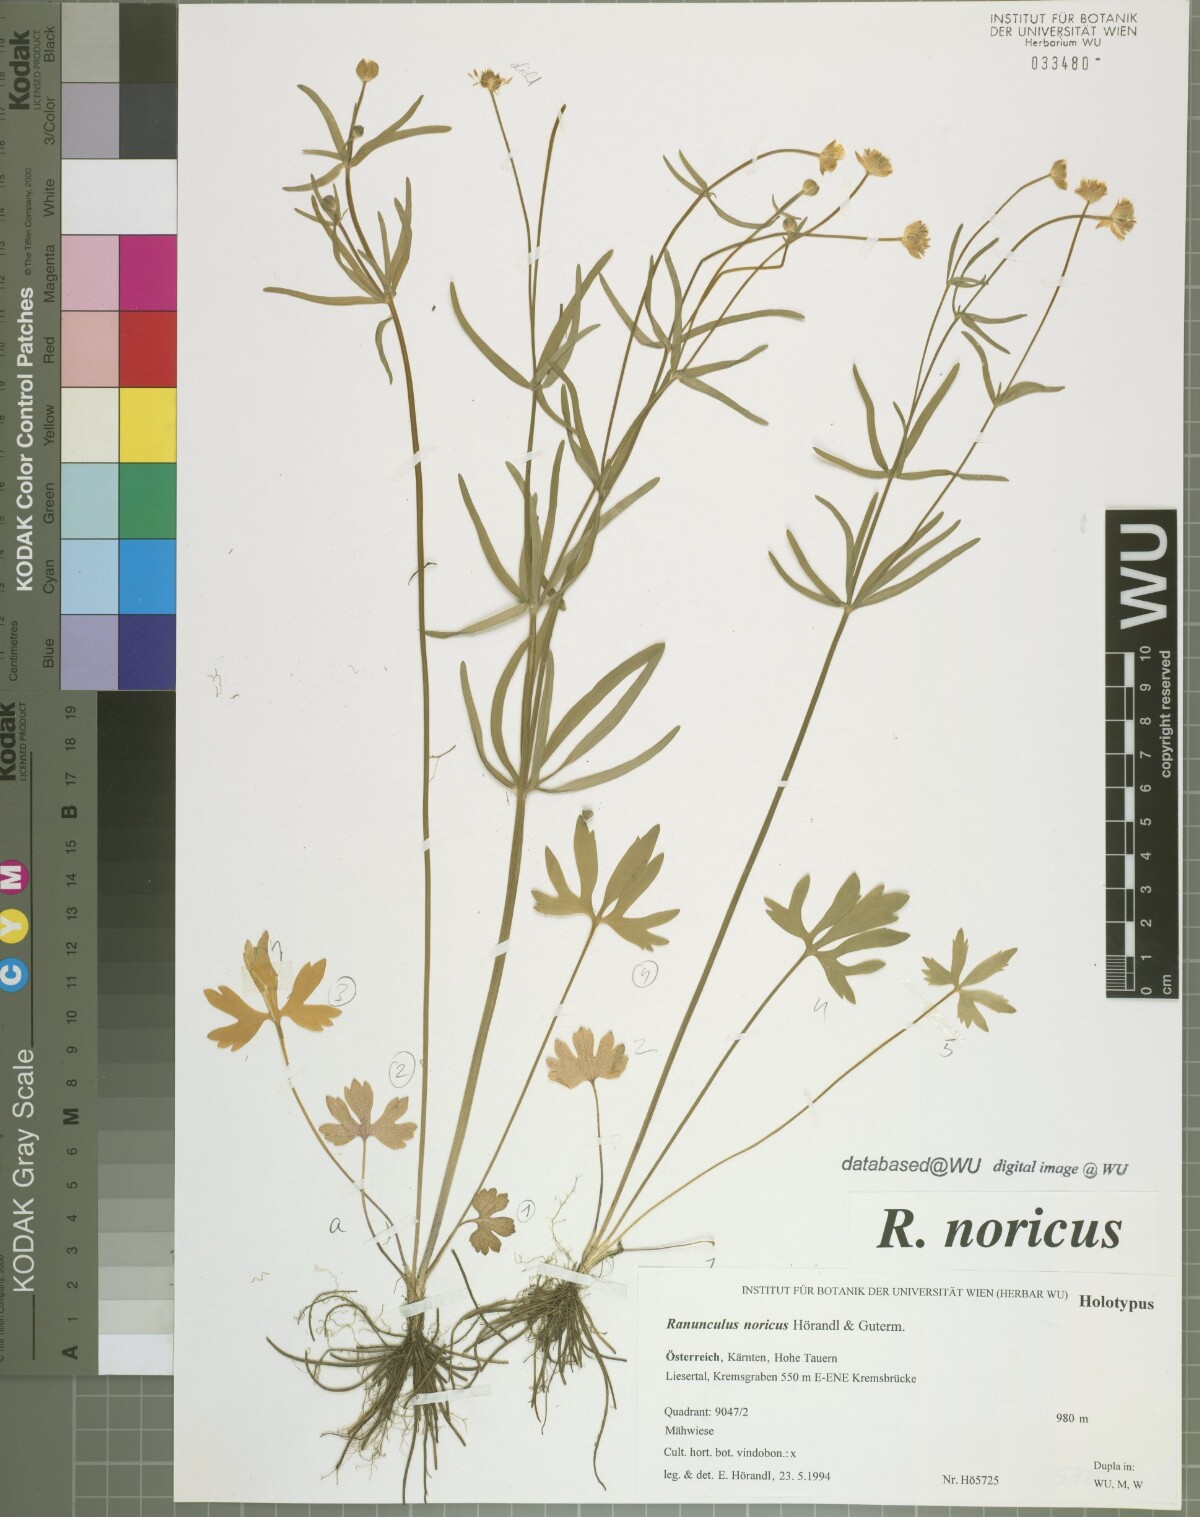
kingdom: Plantae
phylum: Tracheophyta
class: Magnoliopsida
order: Ranunculales
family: Ranunculaceae
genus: Ranunculus
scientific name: Ranunculus noricus
